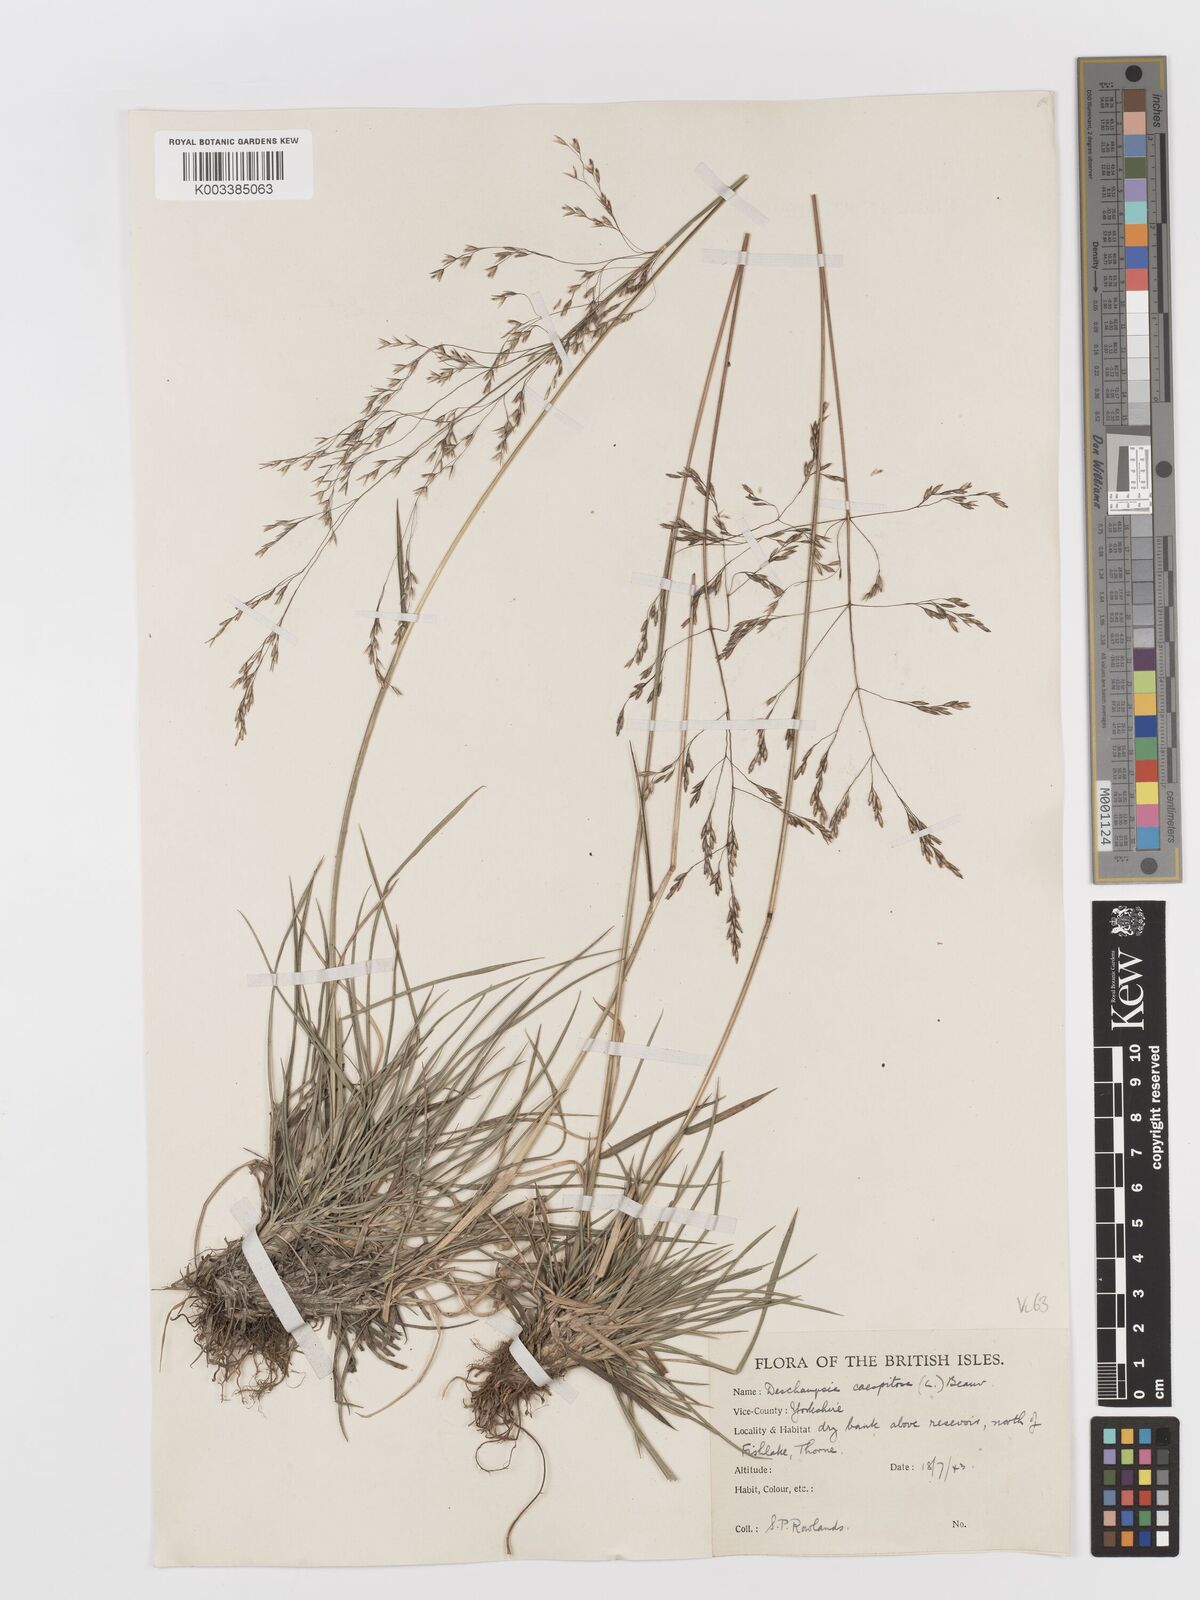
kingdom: Plantae
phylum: Tracheophyta
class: Liliopsida
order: Poales
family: Poaceae
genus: Deschampsia
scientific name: Deschampsia cespitosa
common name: Tufted hair-grass
